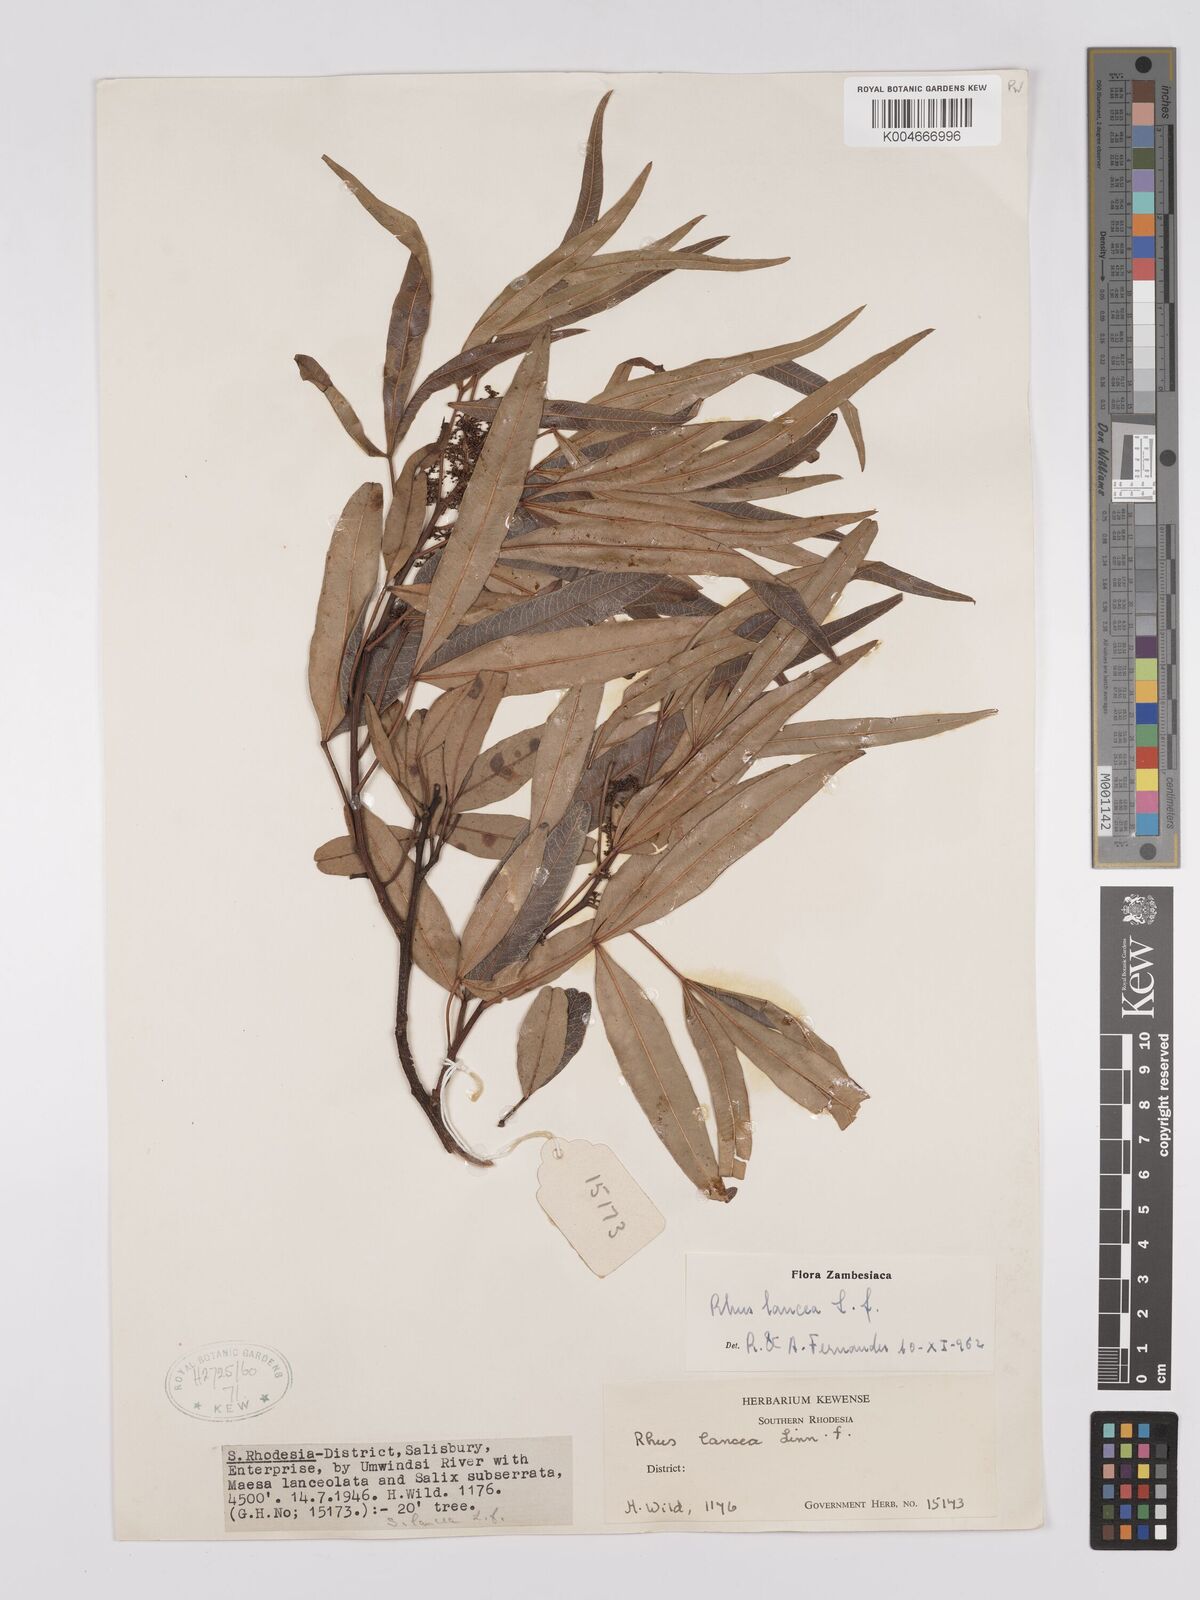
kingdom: Plantae
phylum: Tracheophyta
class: Magnoliopsida
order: Sapindales
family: Anacardiaceae
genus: Searsia
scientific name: Searsia lancea
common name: Cashew
